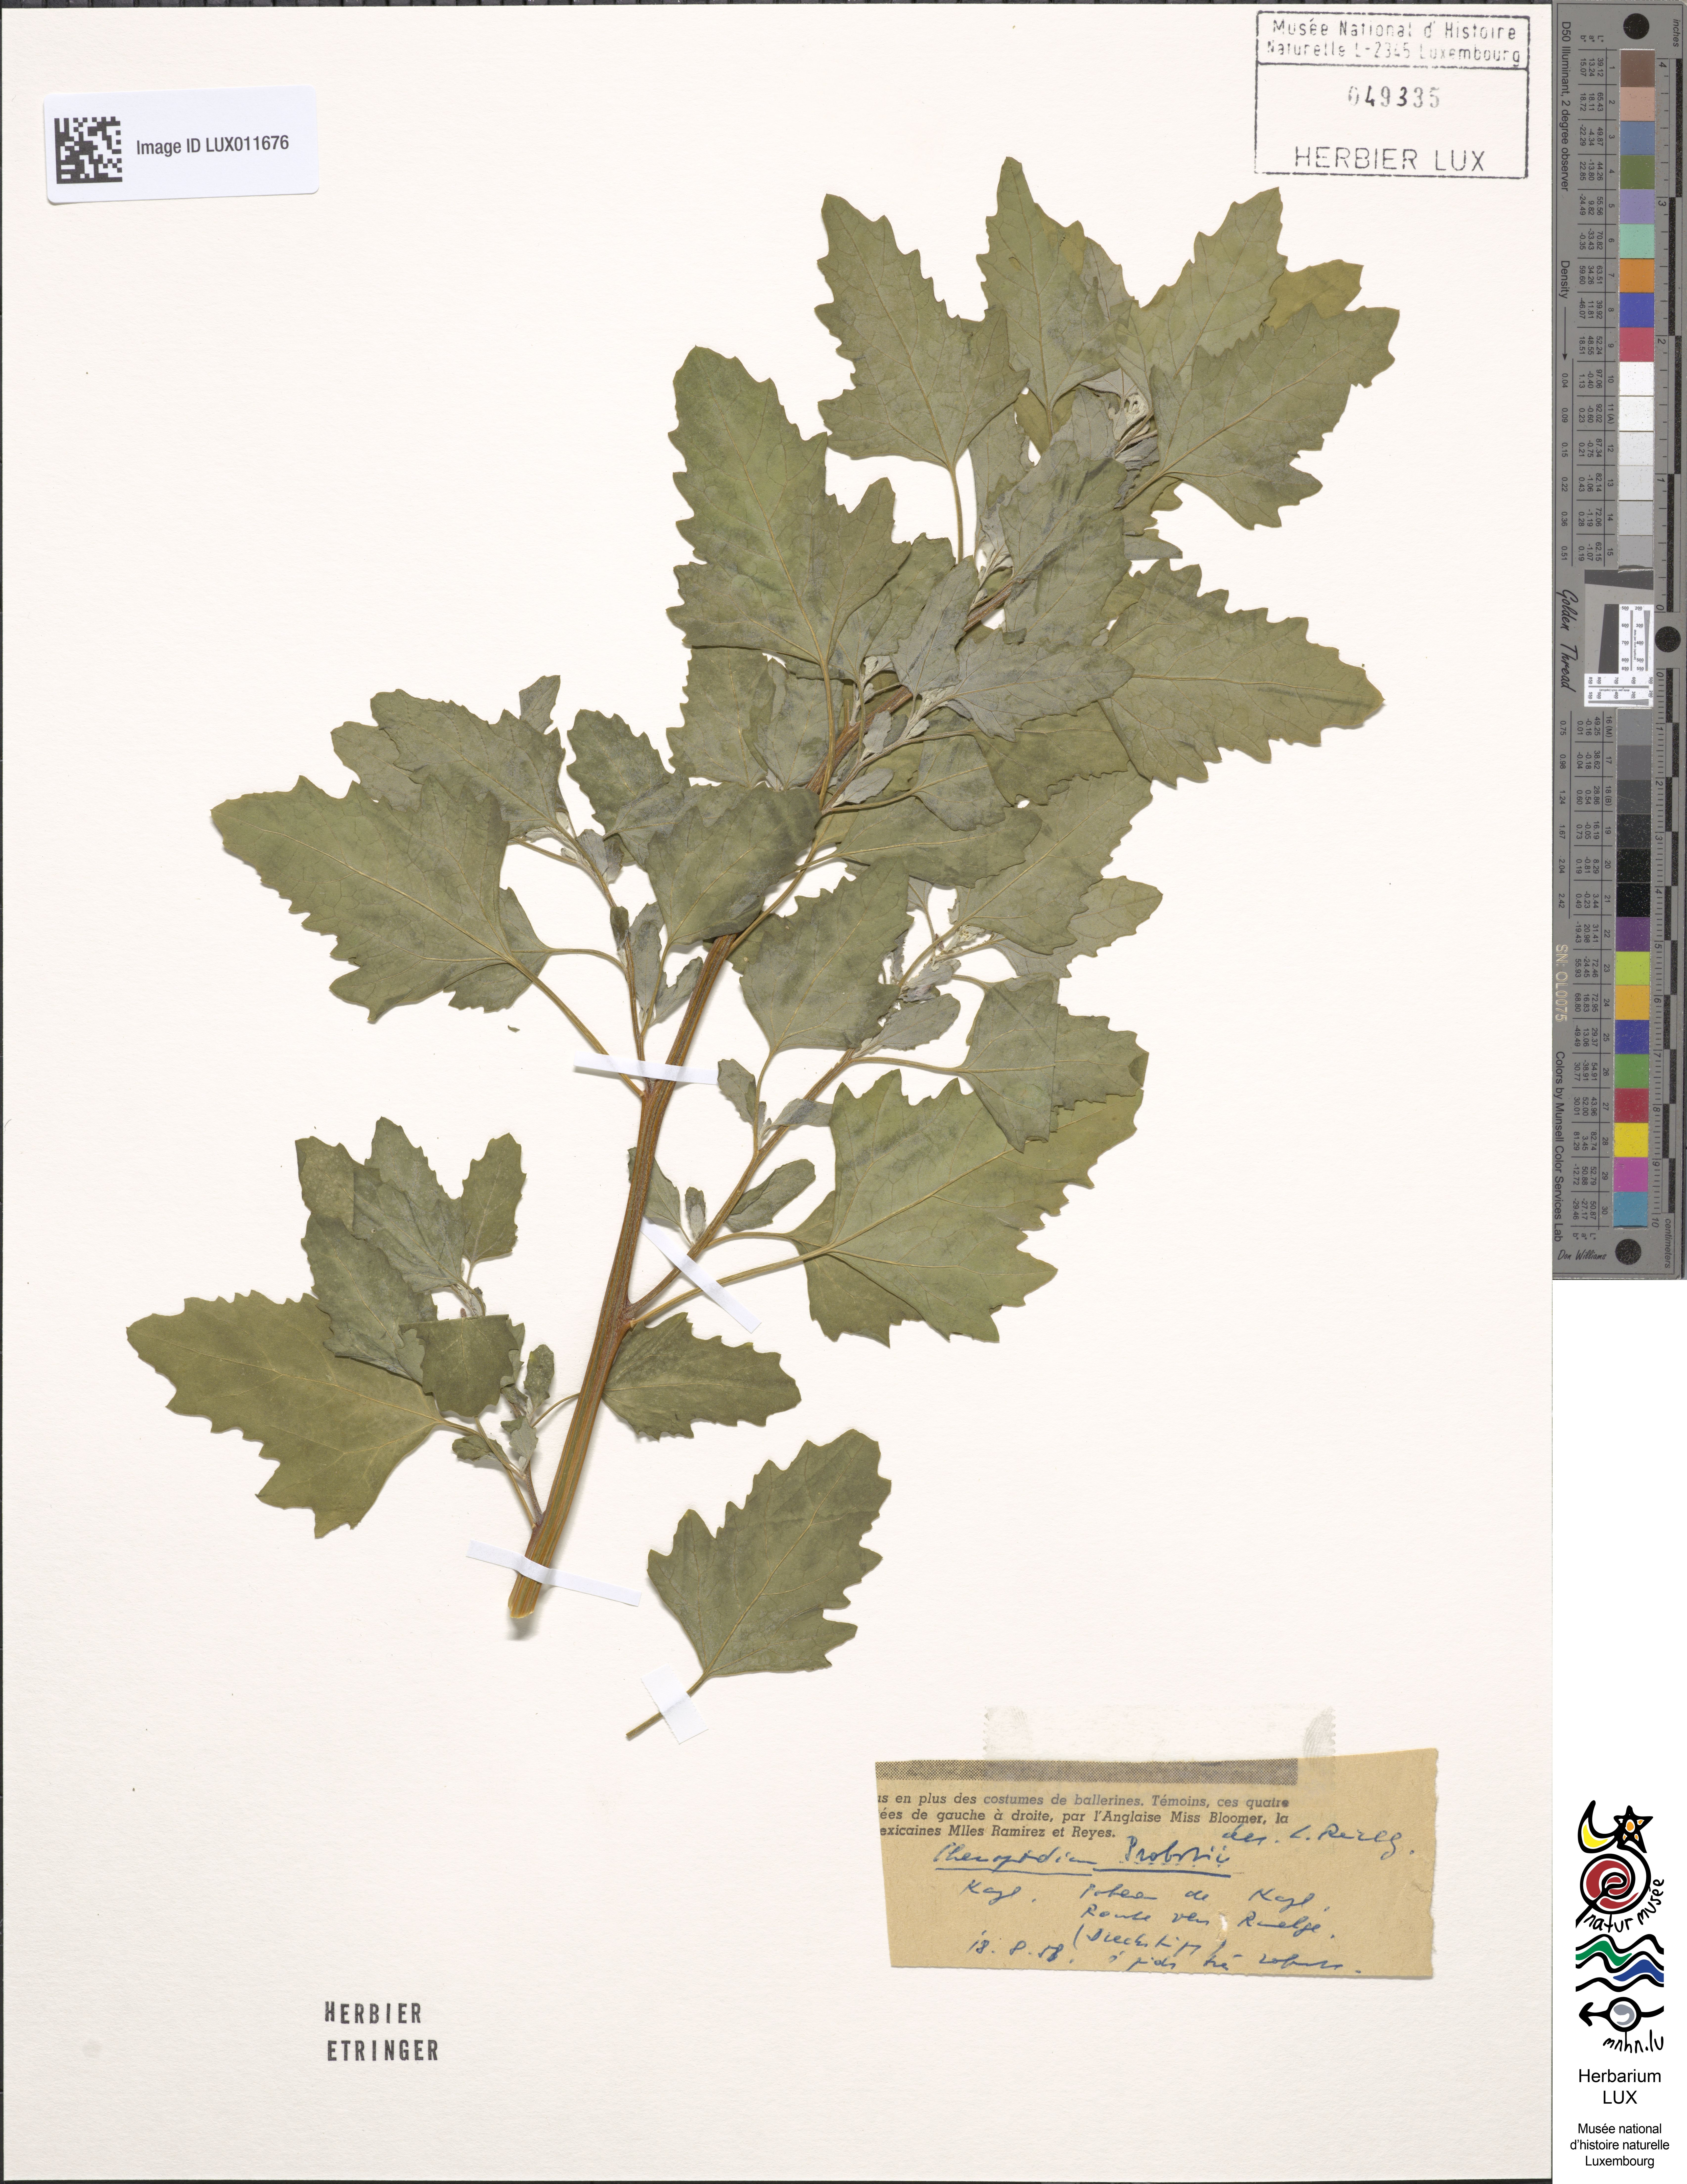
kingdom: Plantae
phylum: Tracheophyta
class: Magnoliopsida
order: Caryophyllales
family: Amaranthaceae
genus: Chenopodium
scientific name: Chenopodium probstii
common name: Probst's goosefoot
